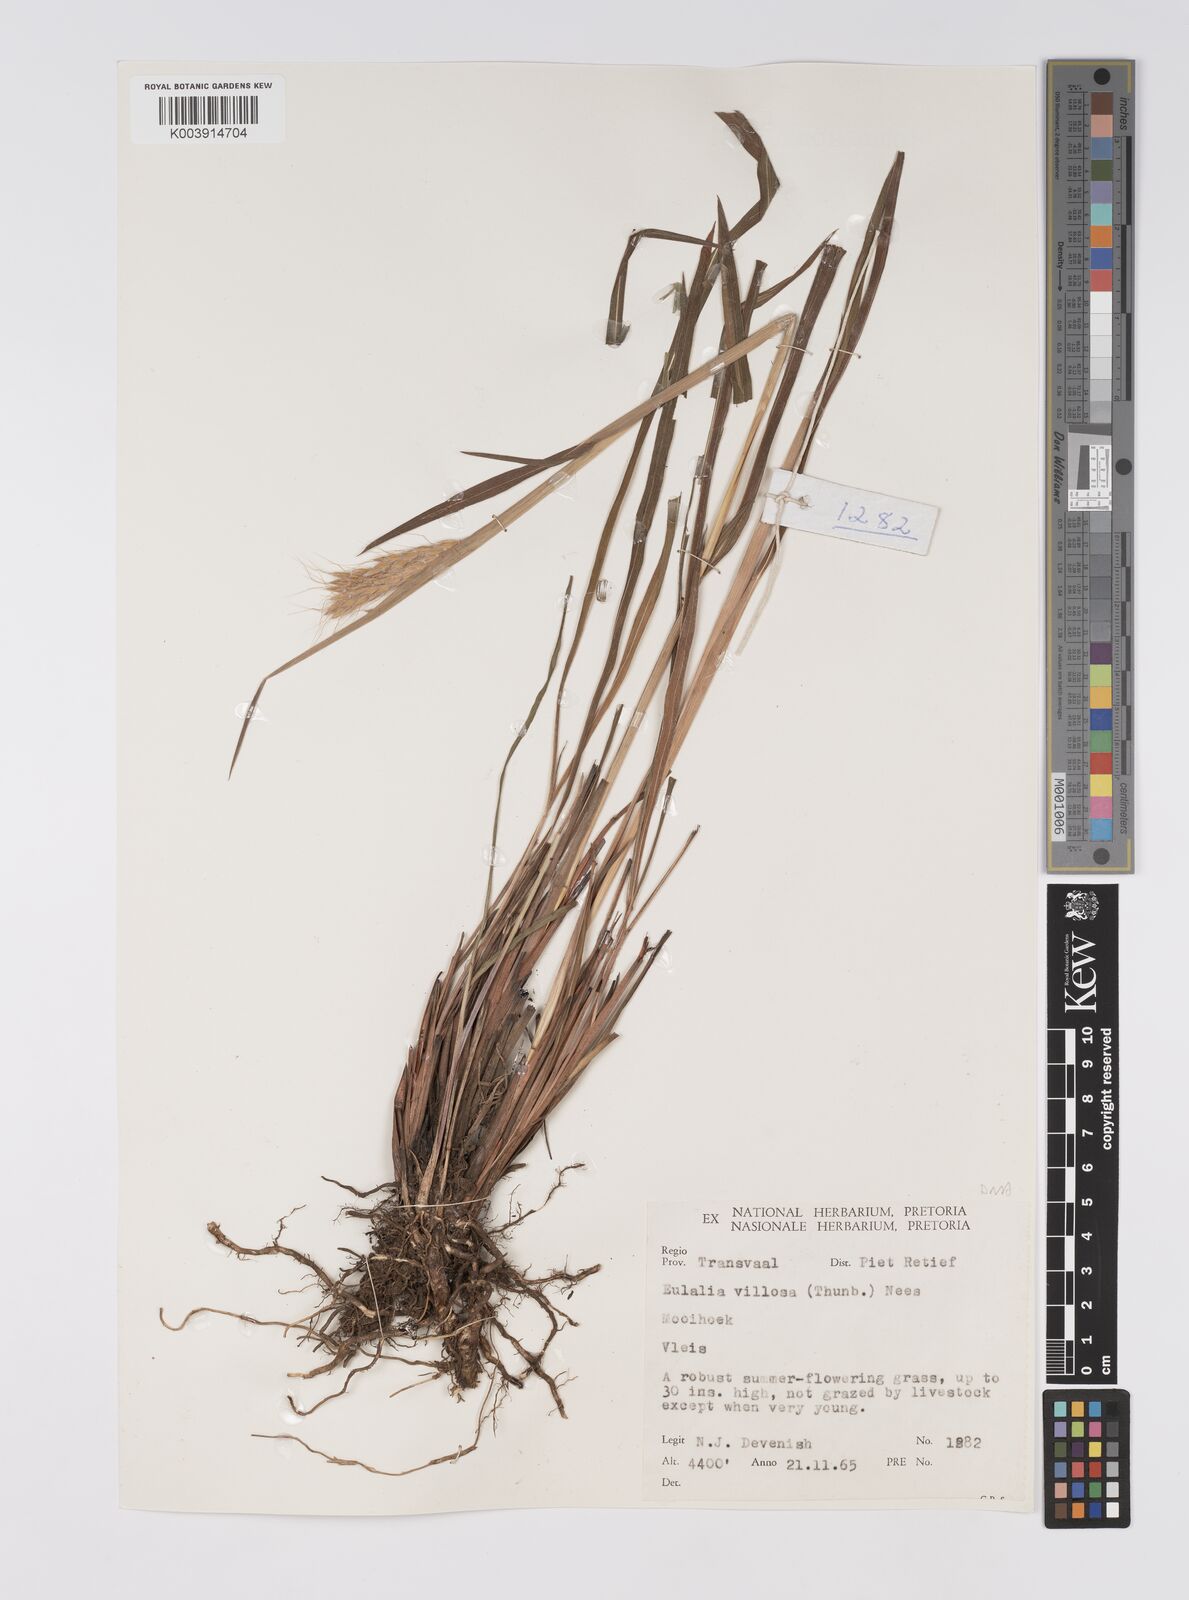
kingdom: Plantae
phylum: Tracheophyta
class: Liliopsida
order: Poales
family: Poaceae
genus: Eulalia
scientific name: Eulalia villosa
